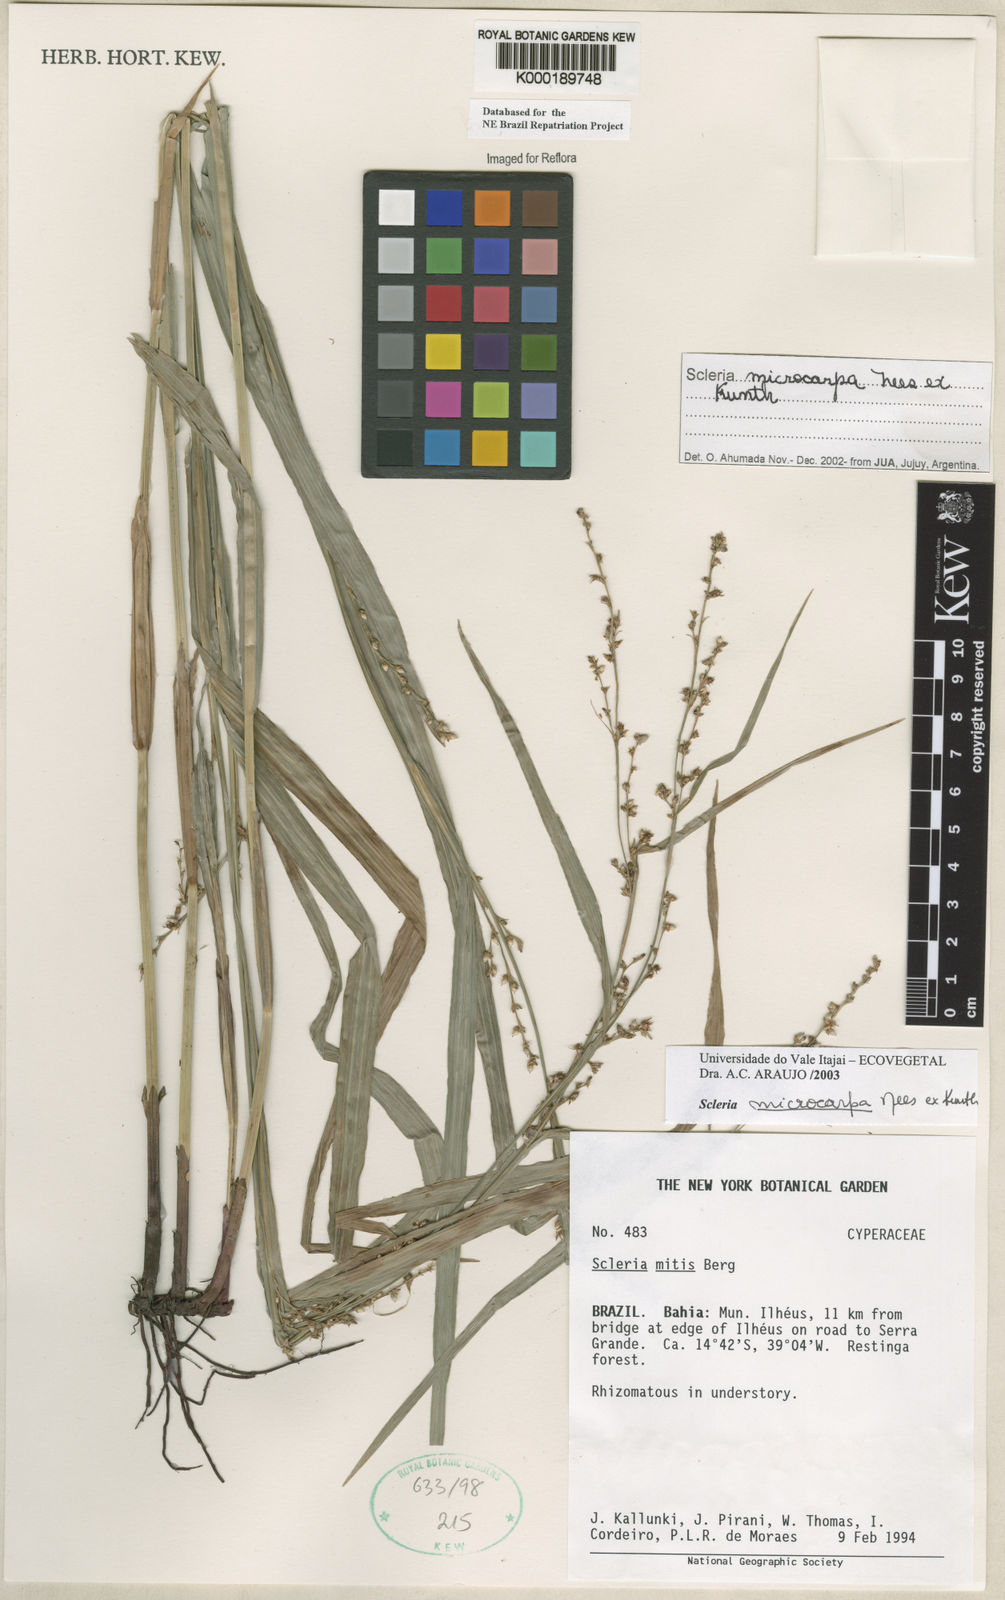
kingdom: Plantae
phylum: Tracheophyta
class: Liliopsida
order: Poales
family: Cyperaceae
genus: Scleria
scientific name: Scleria microcarpa
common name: Tropical nutrush
